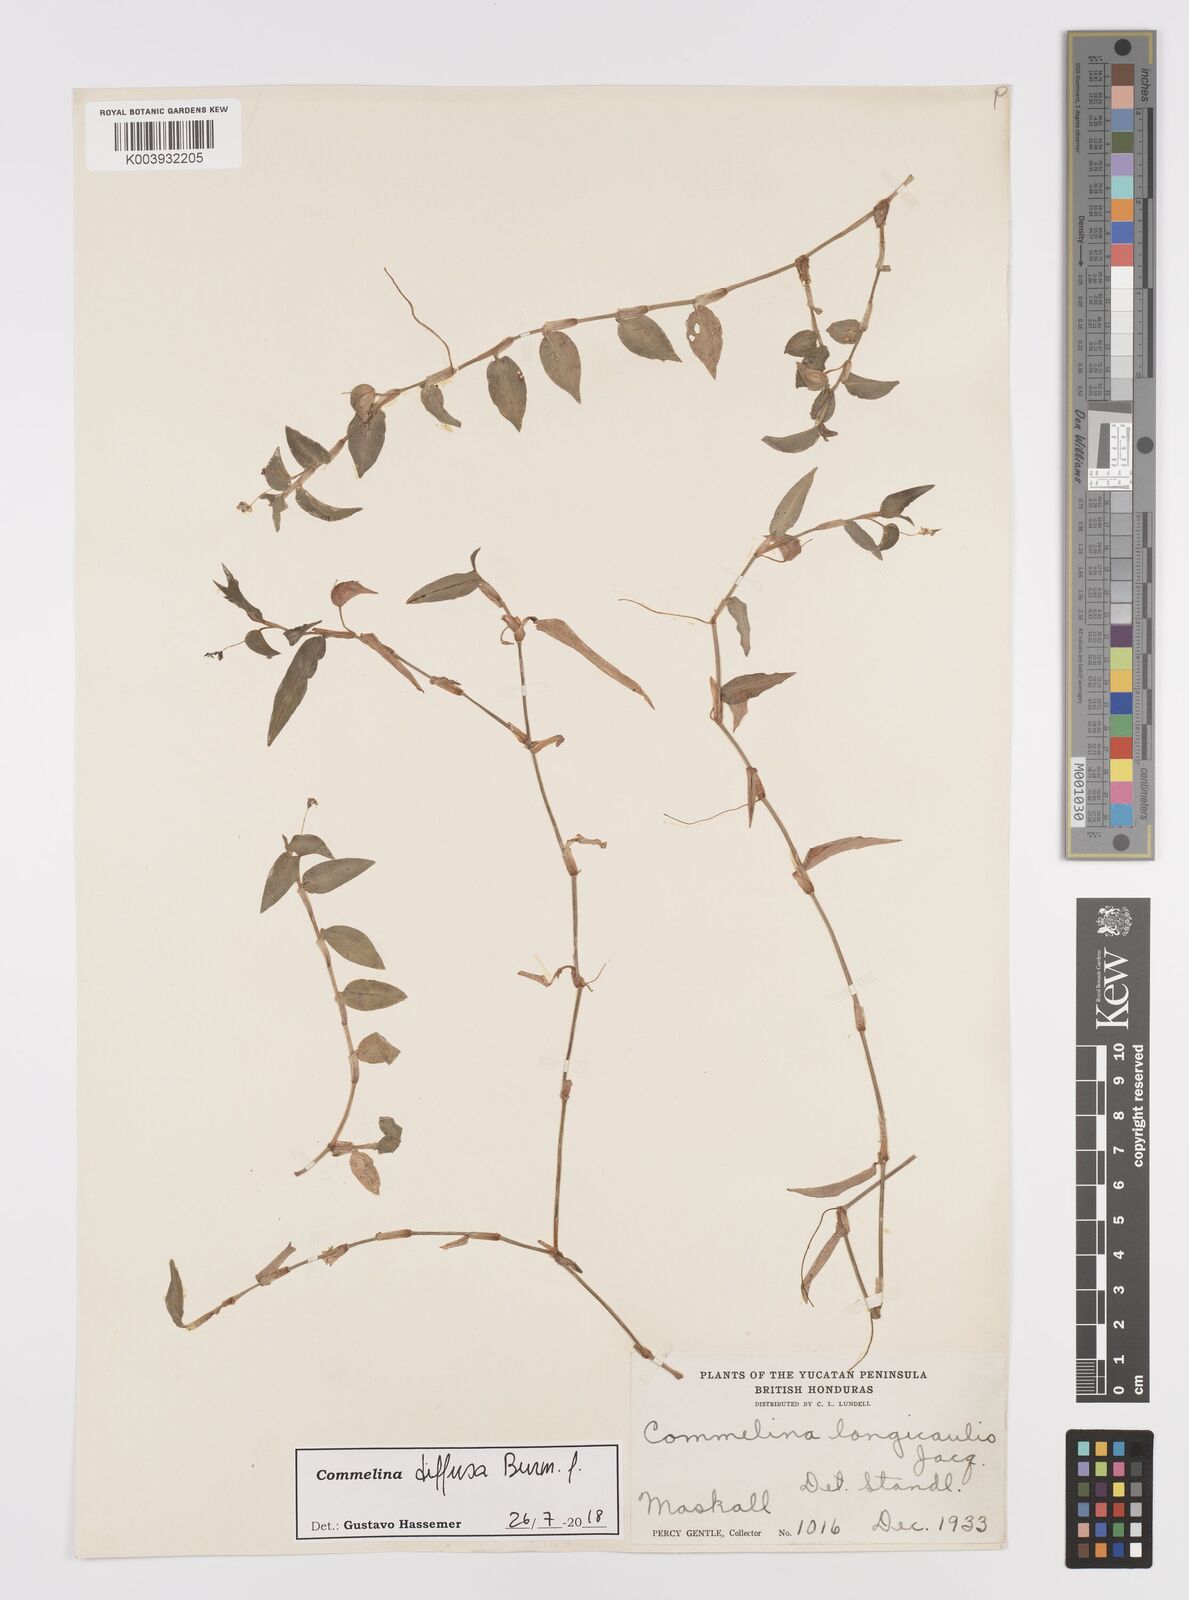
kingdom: Plantae
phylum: Tracheophyta
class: Liliopsida
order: Commelinales
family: Commelinaceae
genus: Commelina
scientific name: Commelina diffusa
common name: Climbing dayflower
